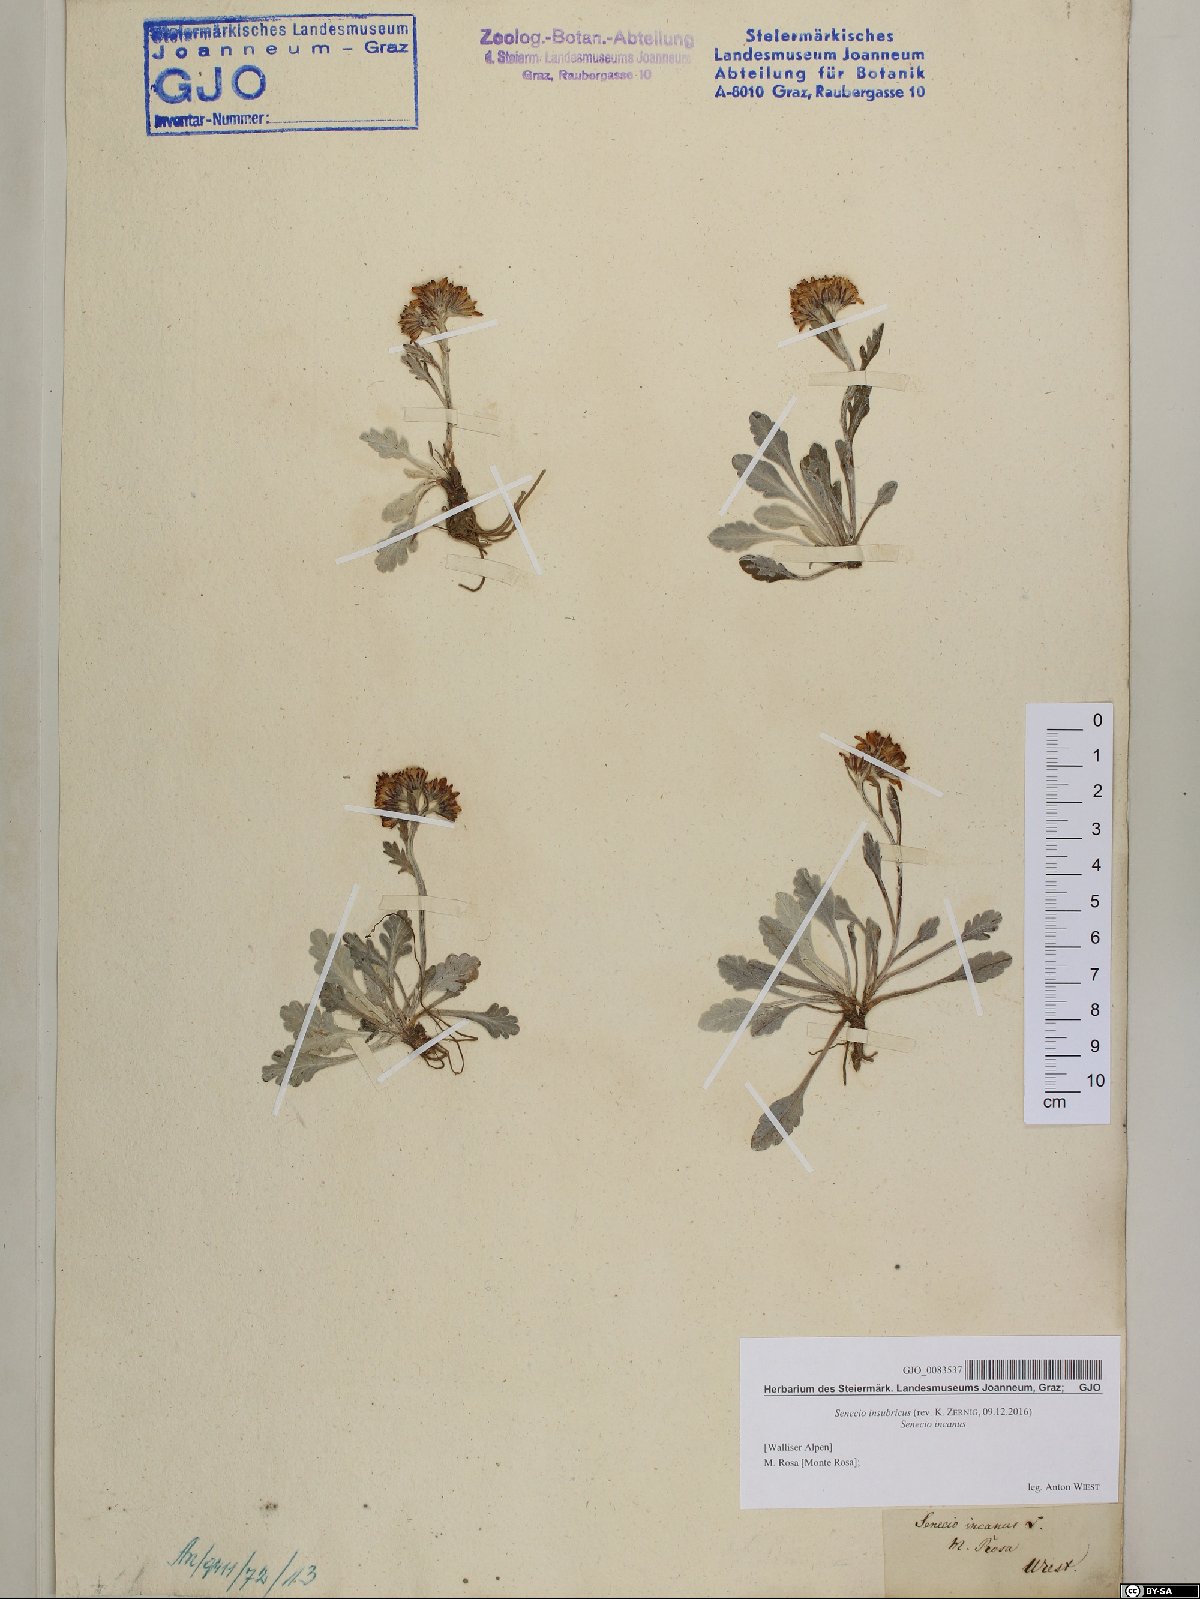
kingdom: Plantae
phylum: Tracheophyta
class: Magnoliopsida
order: Asterales
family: Asteraceae
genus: Jacobaea
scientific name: Jacobaea insubrica
